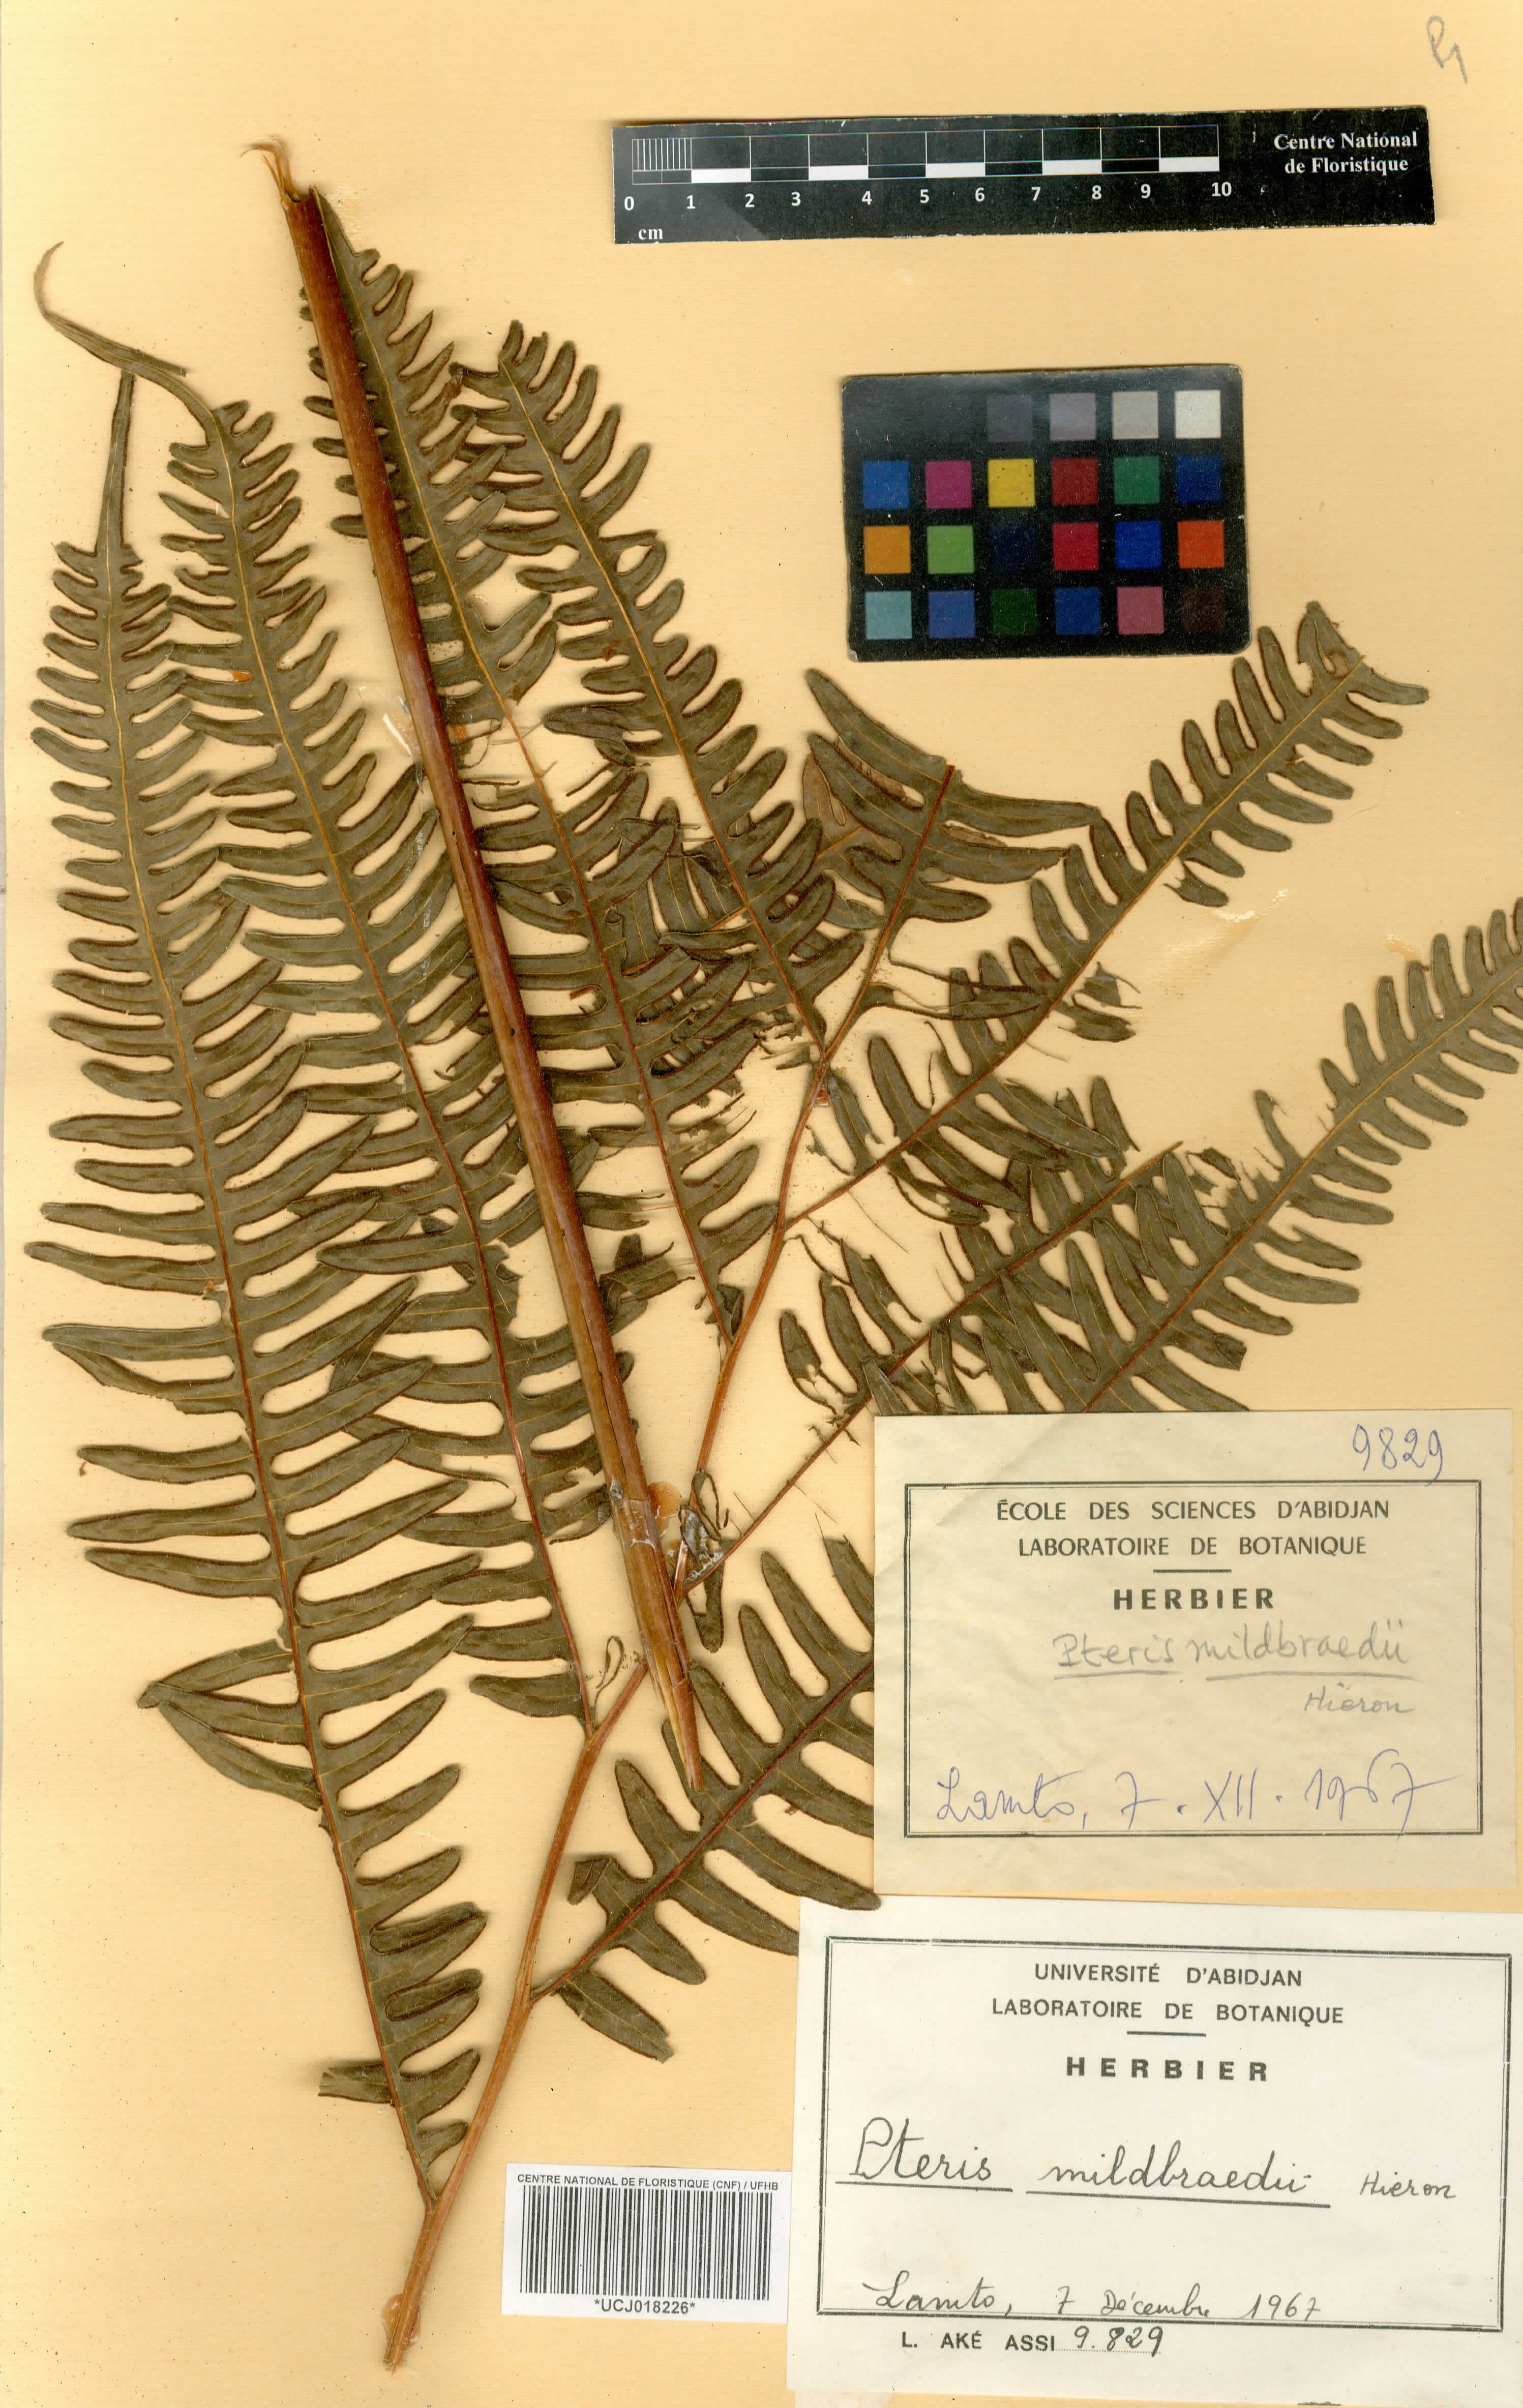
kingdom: Plantae
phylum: Tracheophyta
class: Polypodiopsida
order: Polypodiales
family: Pteridaceae
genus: Pteris
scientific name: Pteris mildbraedii
